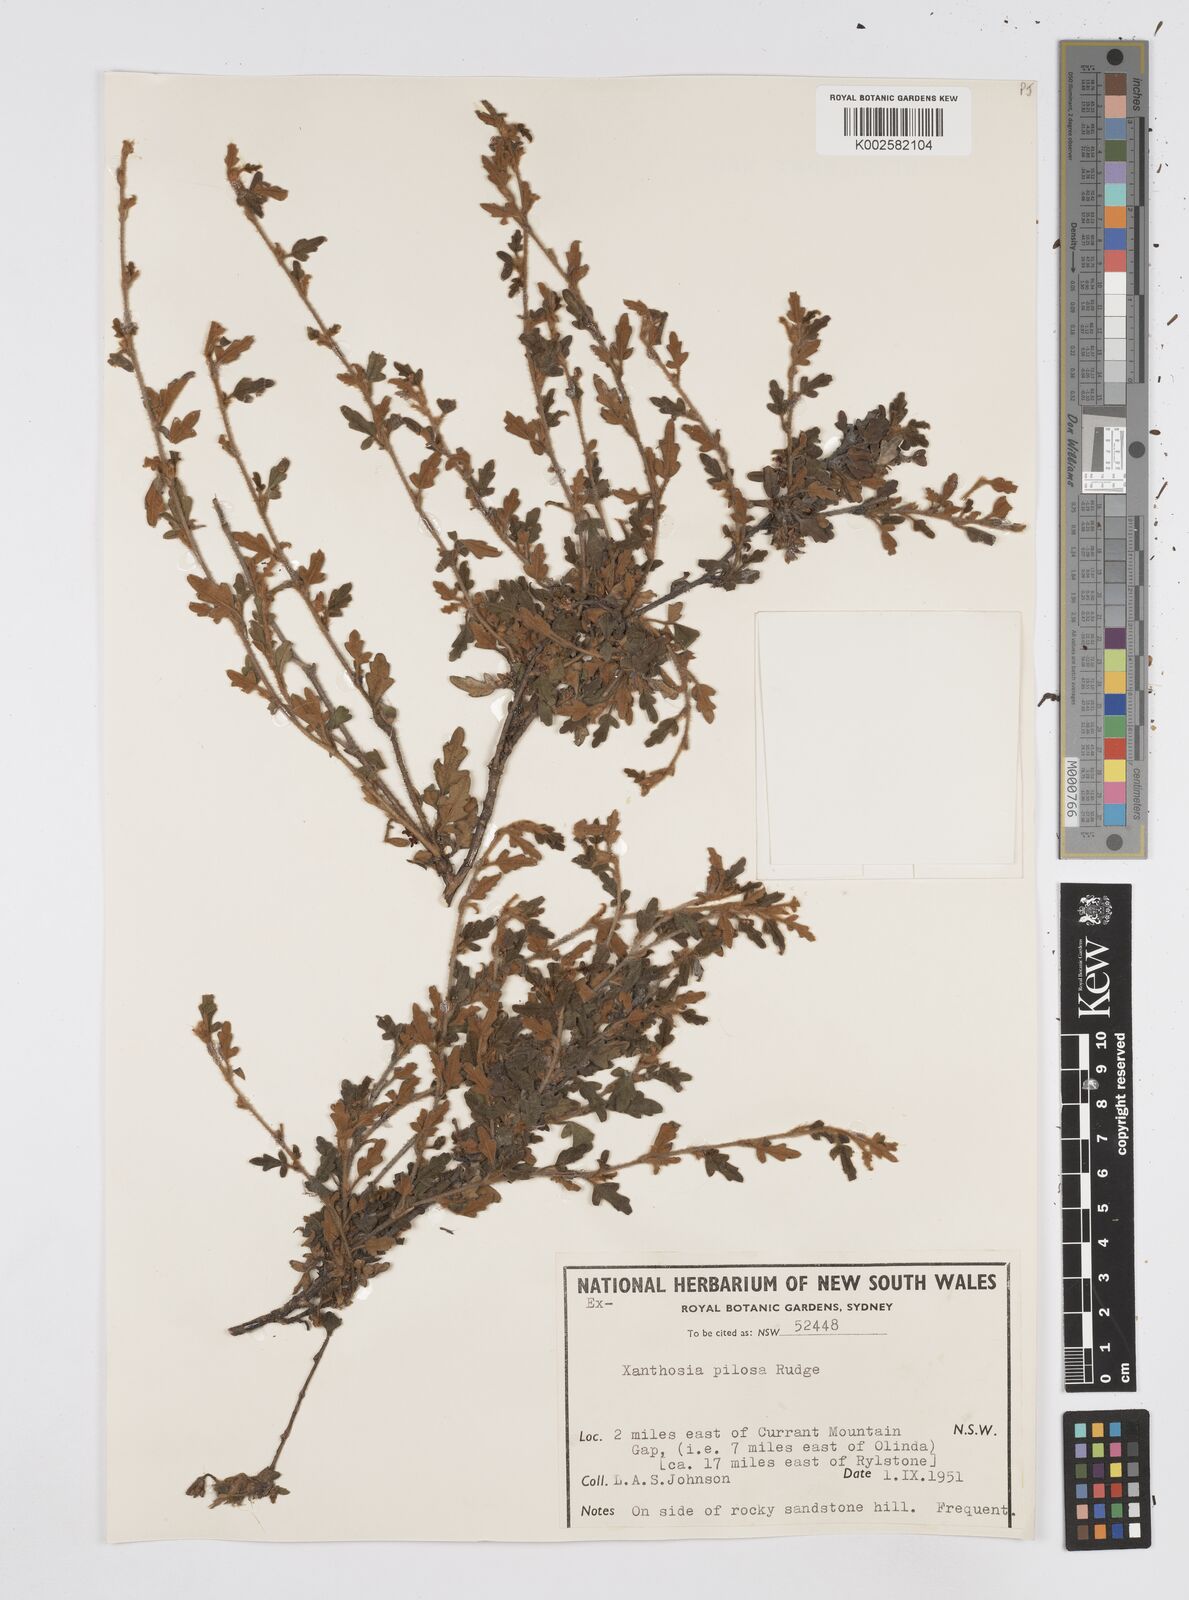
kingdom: Plantae
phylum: Tracheophyta
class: Magnoliopsida
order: Apiales
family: Apiaceae
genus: Xanthosia
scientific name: Xanthosia pilosa
